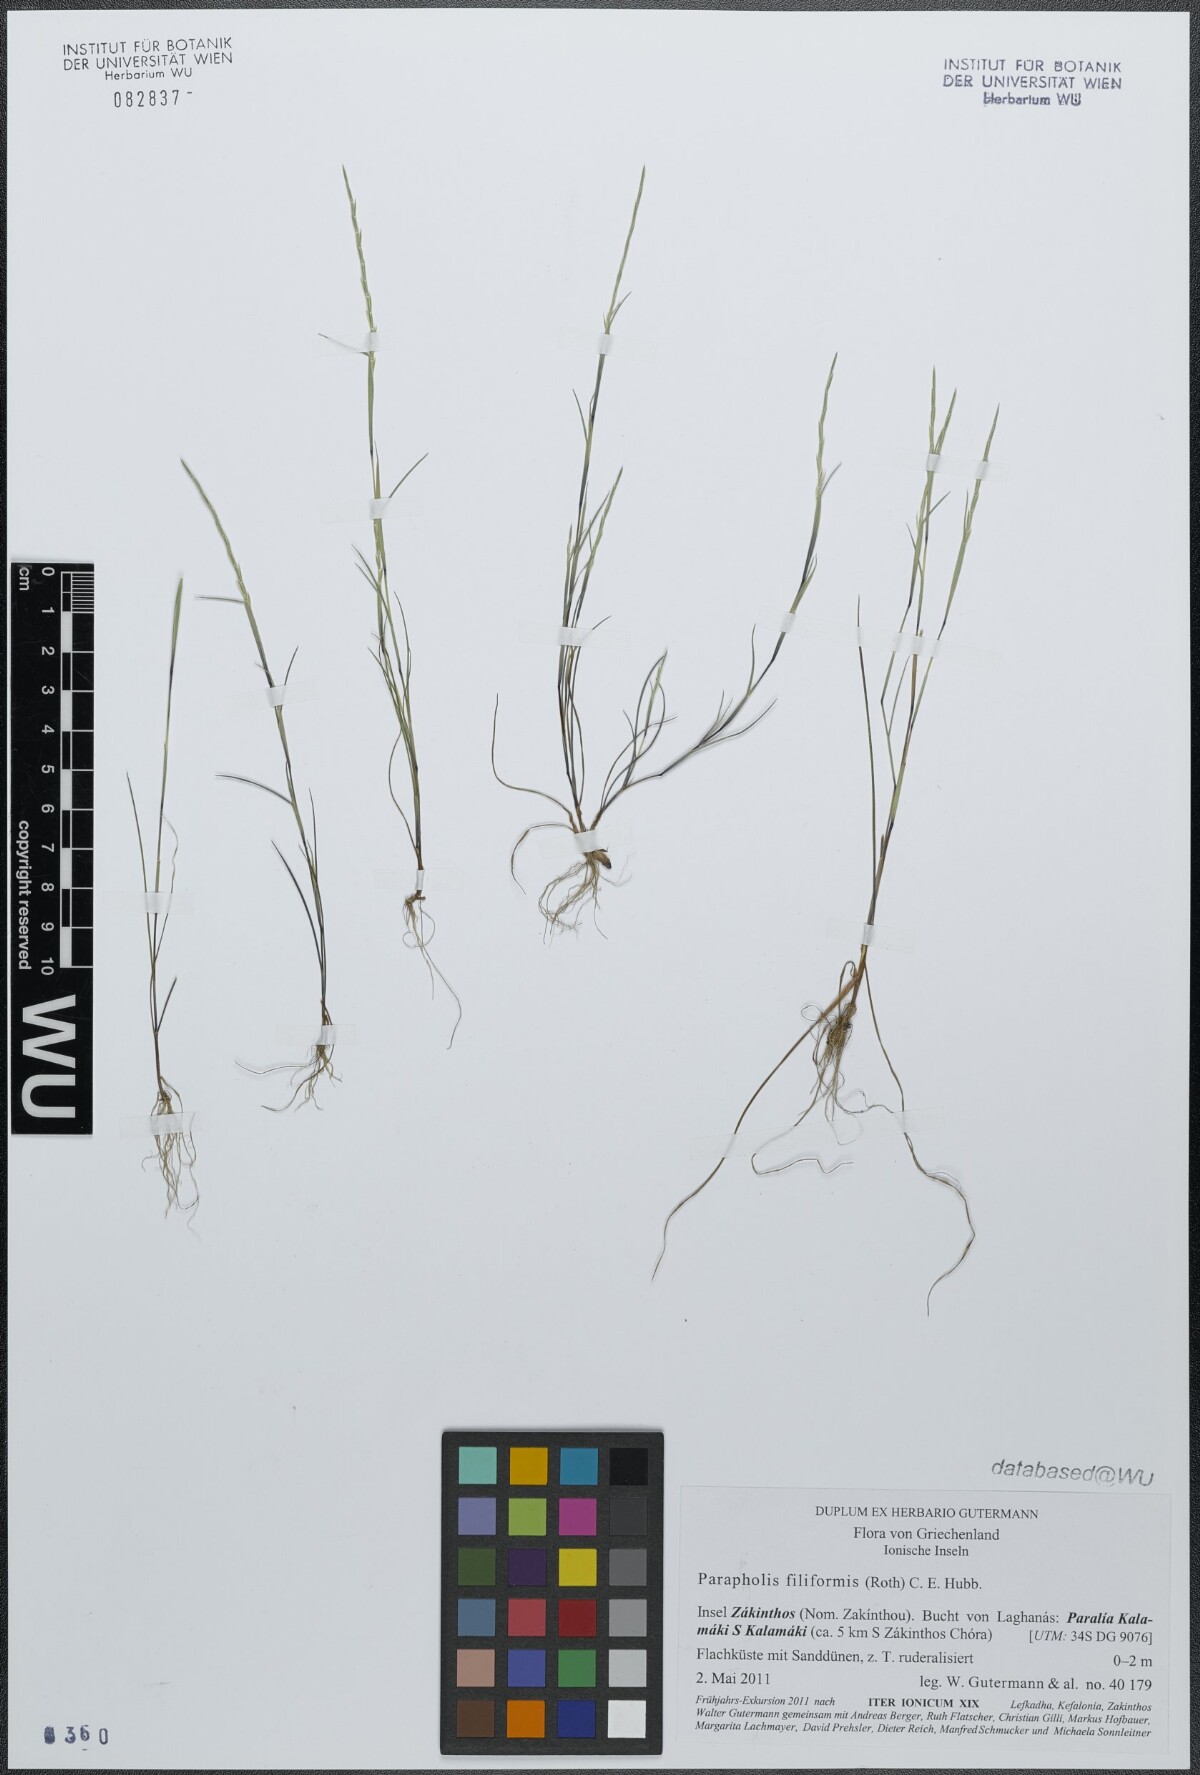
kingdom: Plantae
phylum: Tracheophyta
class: Liliopsida
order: Poales
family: Poaceae
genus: Parapholis
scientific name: Parapholis filiformis
